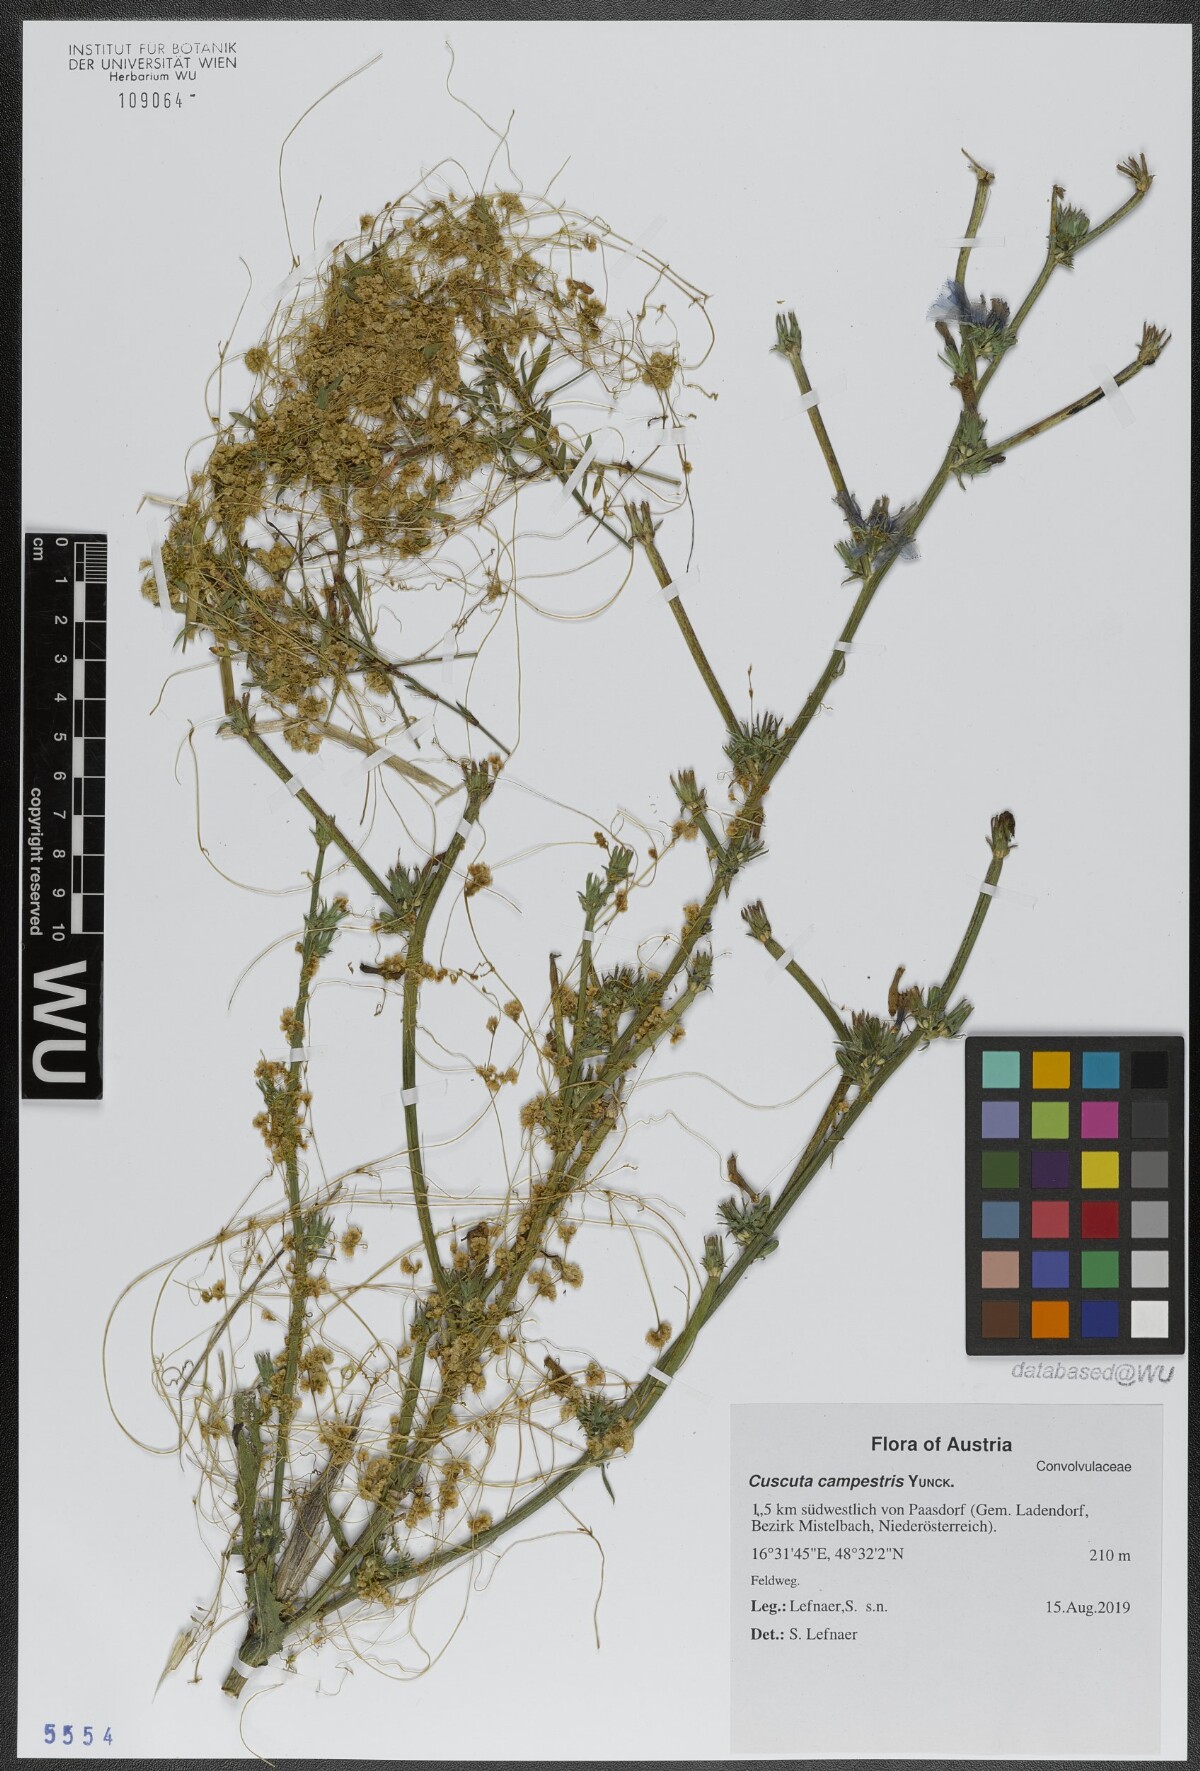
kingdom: Plantae
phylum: Tracheophyta
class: Magnoliopsida
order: Solanales
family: Convolvulaceae
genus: Cuscuta
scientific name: Cuscuta campestris
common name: Yellow dodder
